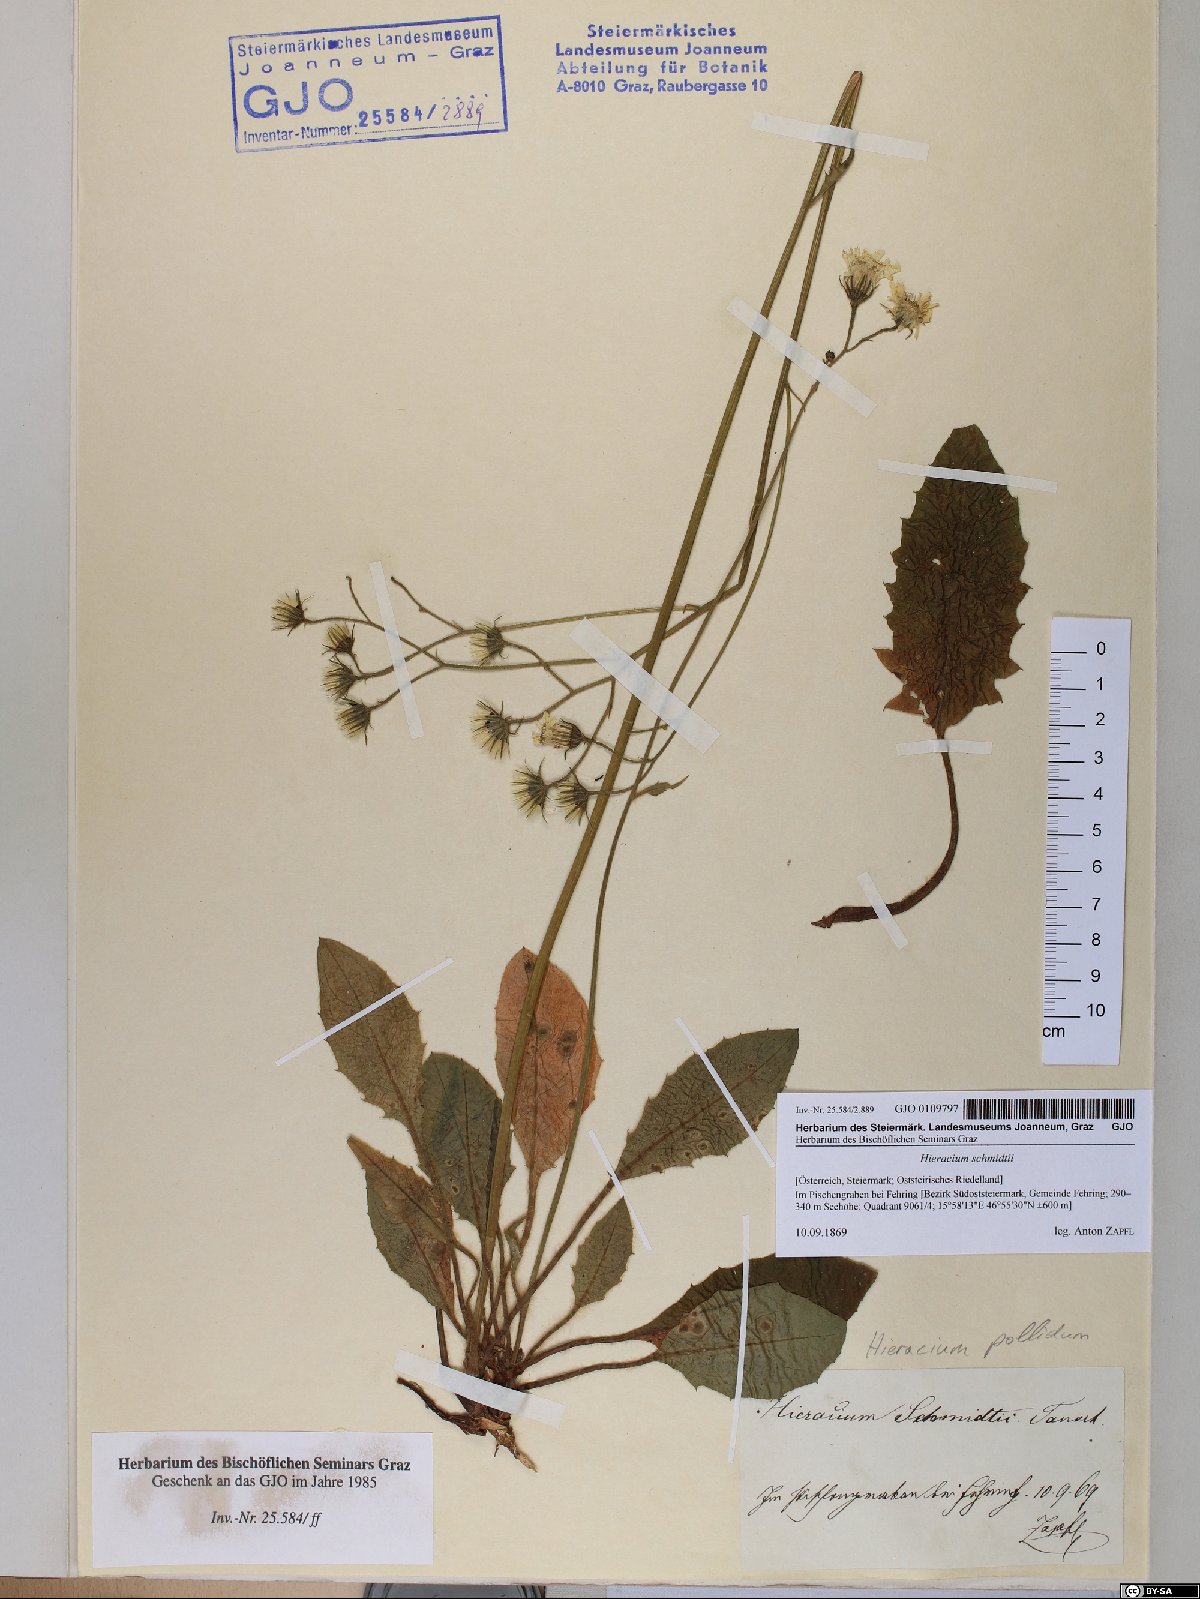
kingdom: Plantae
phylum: Tracheophyta
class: Magnoliopsida
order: Asterales
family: Asteraceae
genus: Hieracium
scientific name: Hieracium schmidtii
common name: Schmidt's hawkweed
